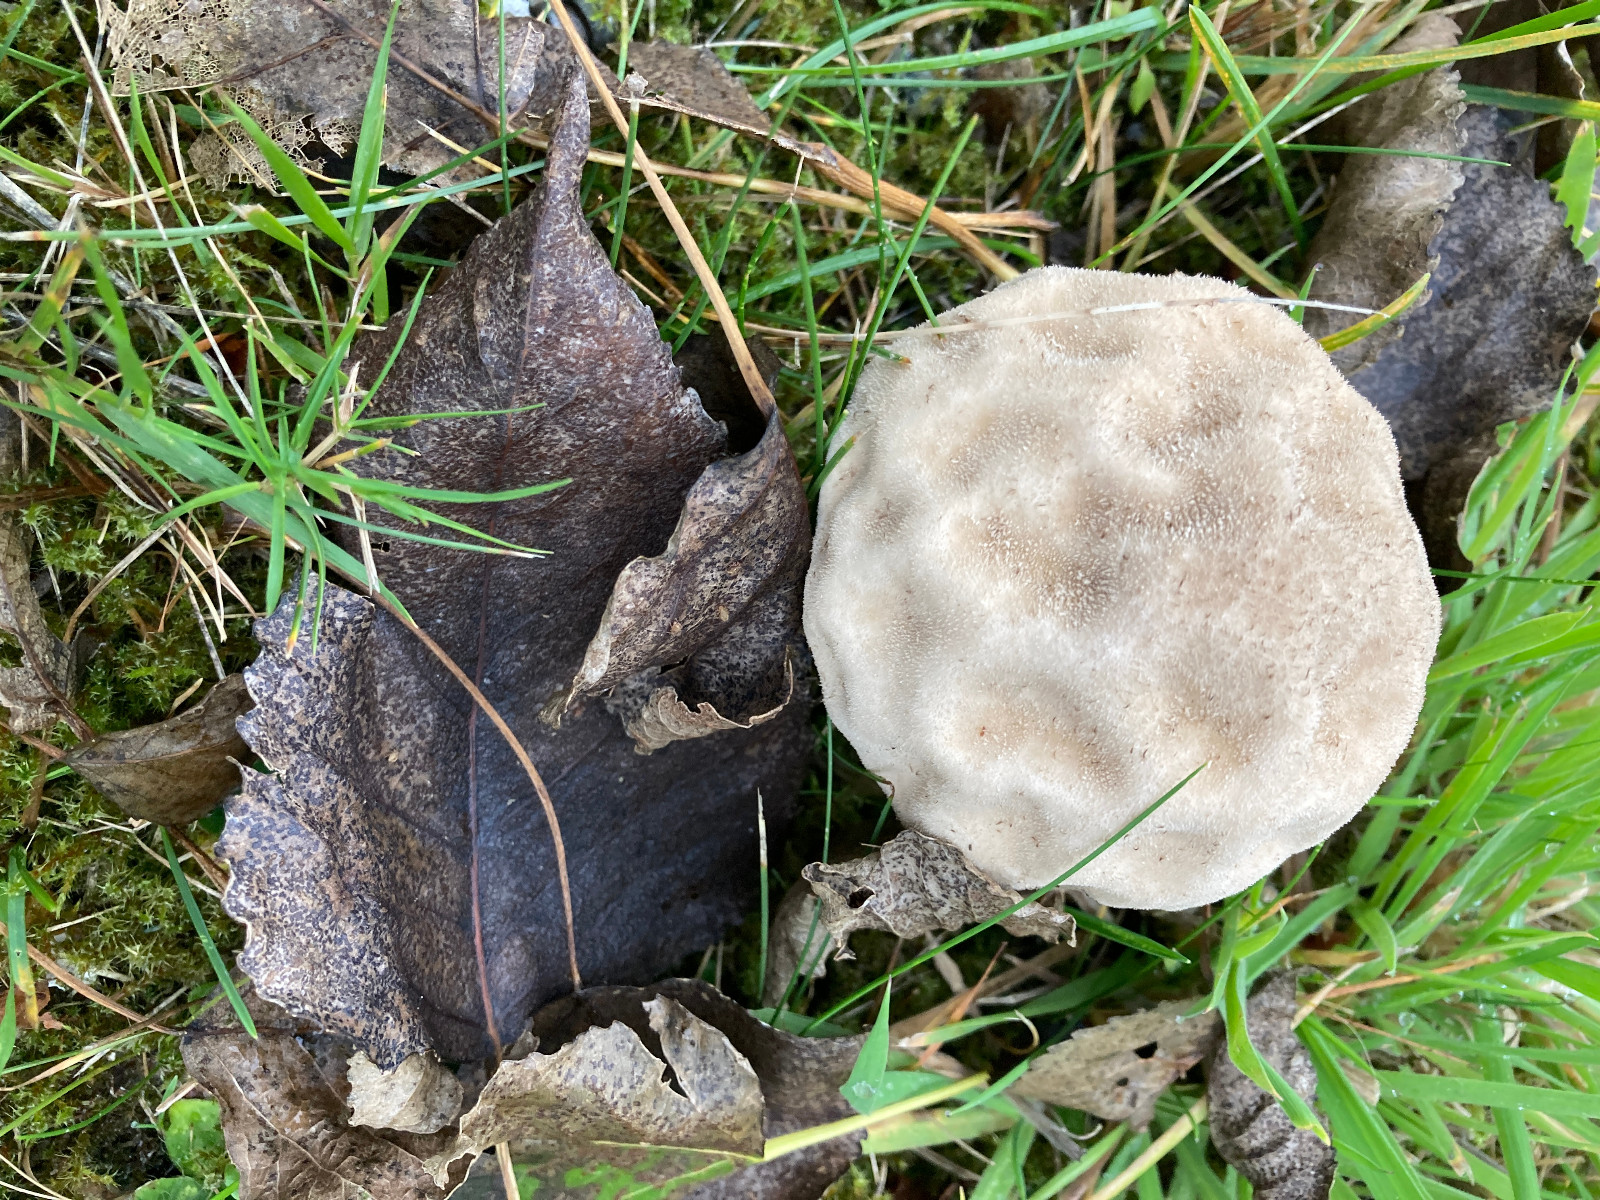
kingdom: Fungi
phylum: Basidiomycota
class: Agaricomycetes
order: Agaricales
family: Lycoperdaceae
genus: Lycoperdon
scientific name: Lycoperdon excipuliforme
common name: højstokket støvbold
